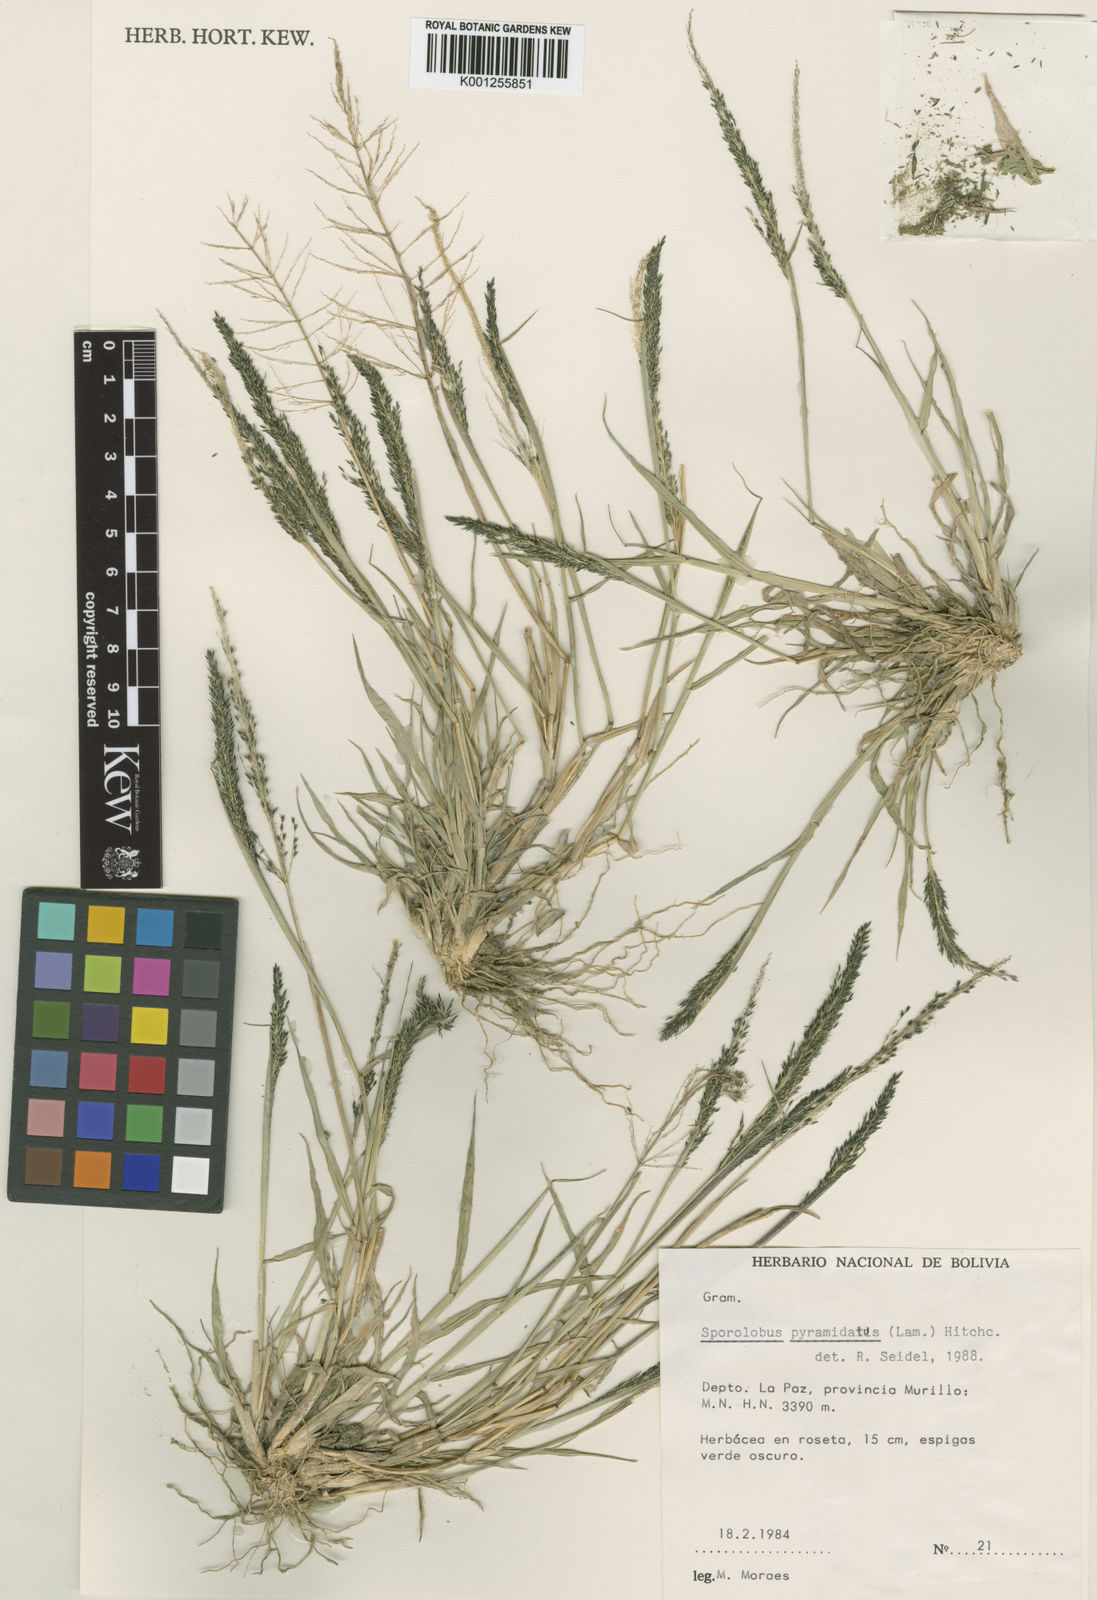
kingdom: Plantae
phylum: Tracheophyta
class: Liliopsida
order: Poales
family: Poaceae
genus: Sporobolus
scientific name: Sporobolus pyramidatus
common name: Whorled dropseed
